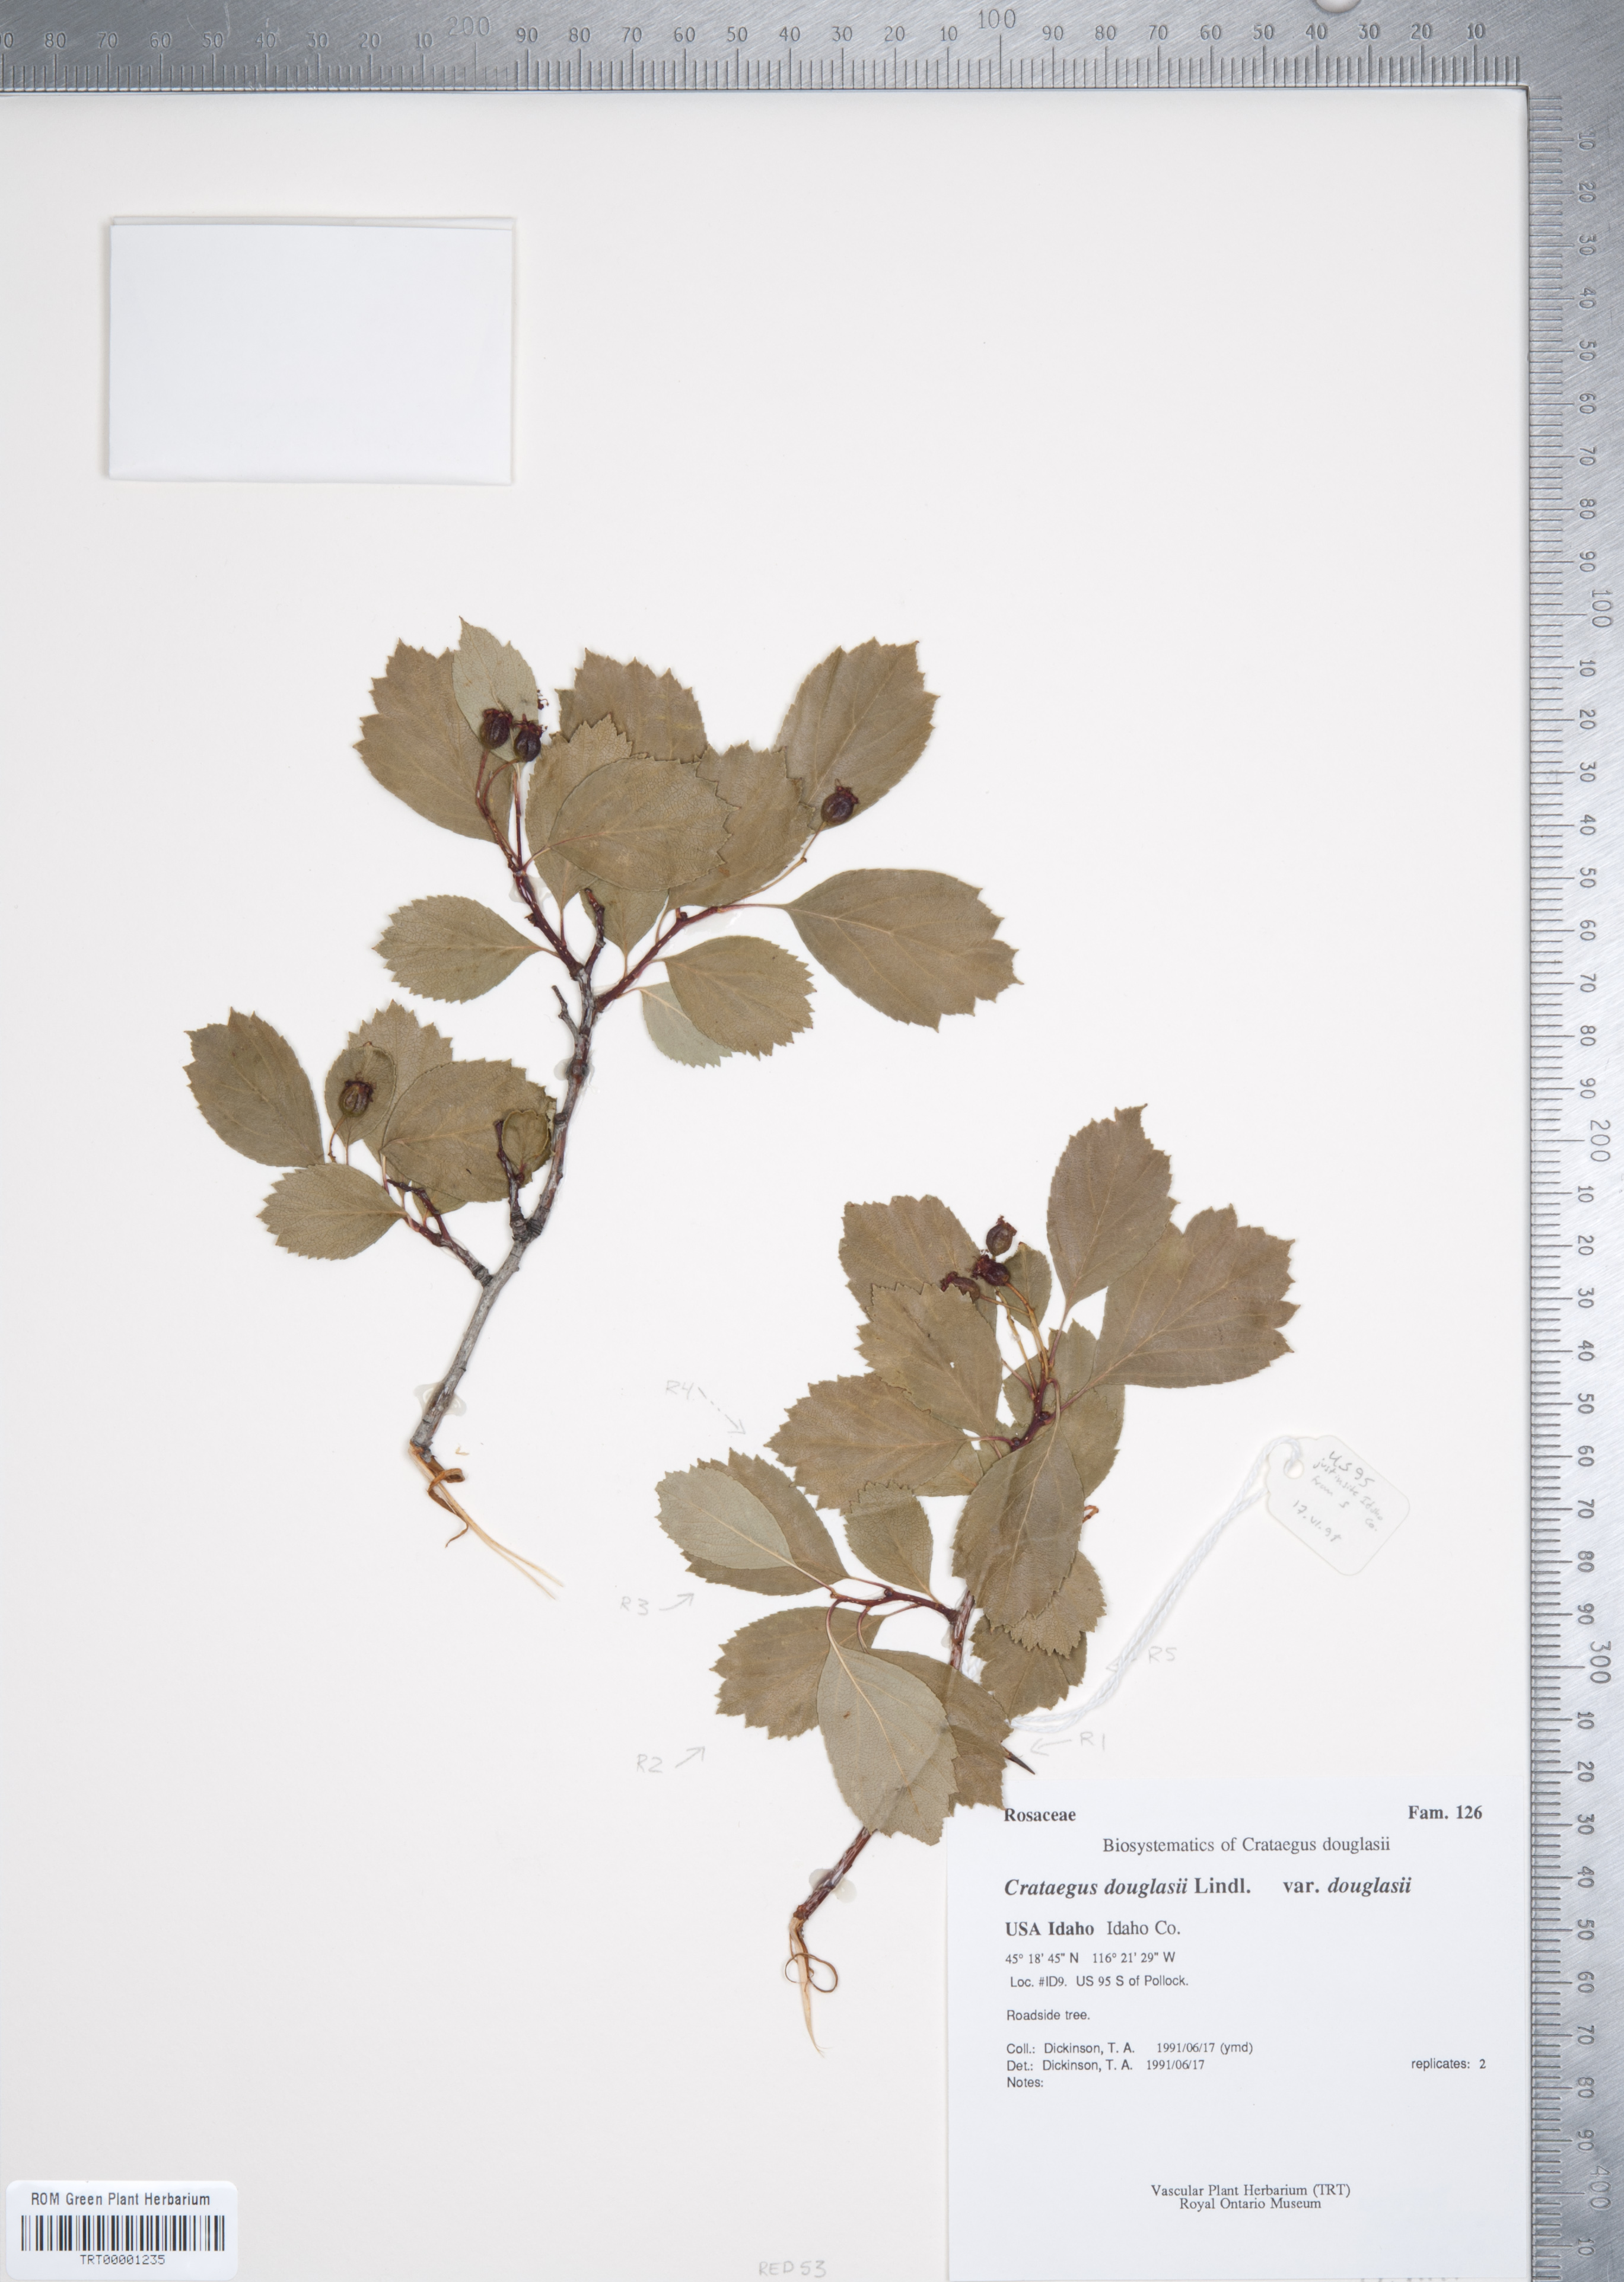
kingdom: Plantae
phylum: Tracheophyta
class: Magnoliopsida
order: Rosales
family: Rosaceae
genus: Crataegus
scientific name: Crataegus douglasii
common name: Black hawthorn
